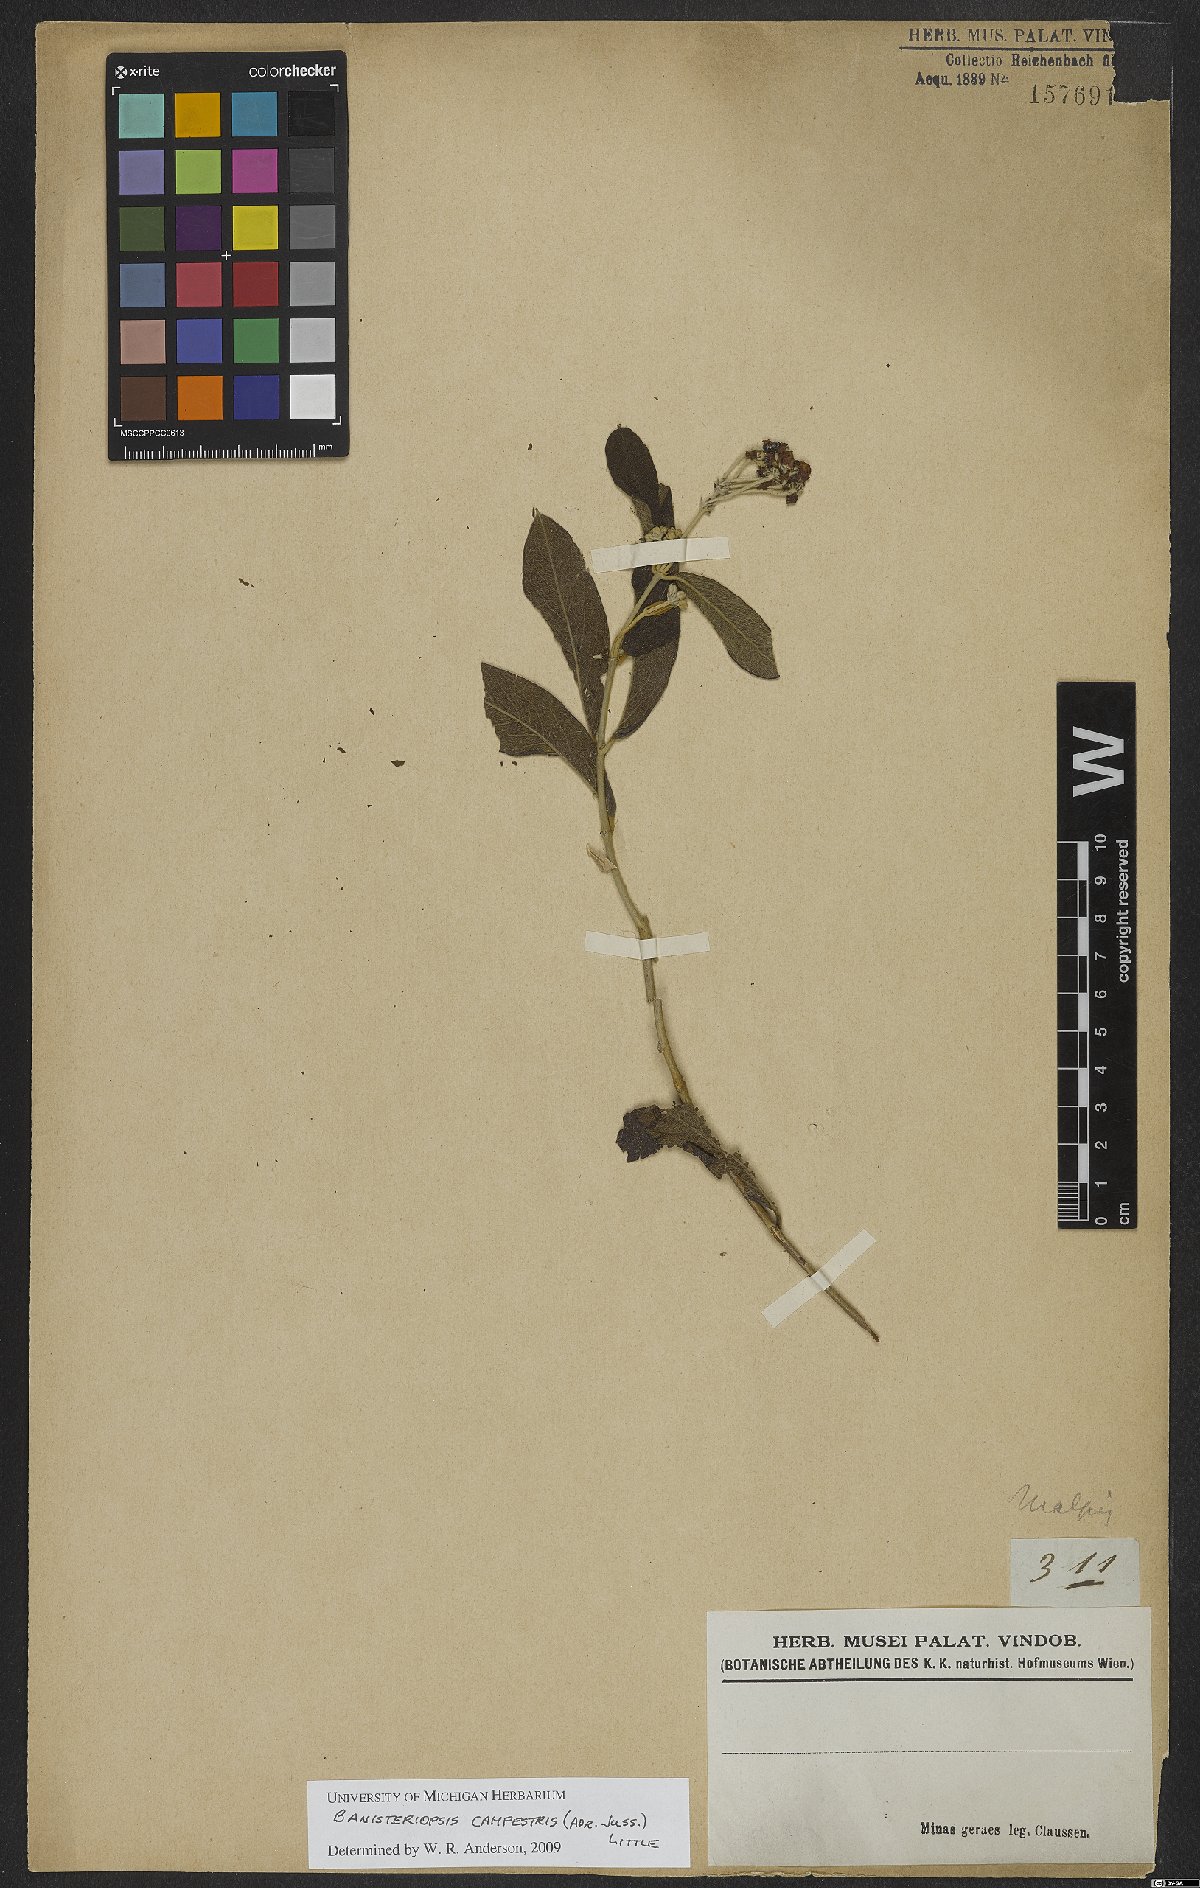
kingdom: Plantae
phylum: Tracheophyta
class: Magnoliopsida
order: Malpighiales
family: Malpighiaceae
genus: Banisteriopsis
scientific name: Banisteriopsis campestris
